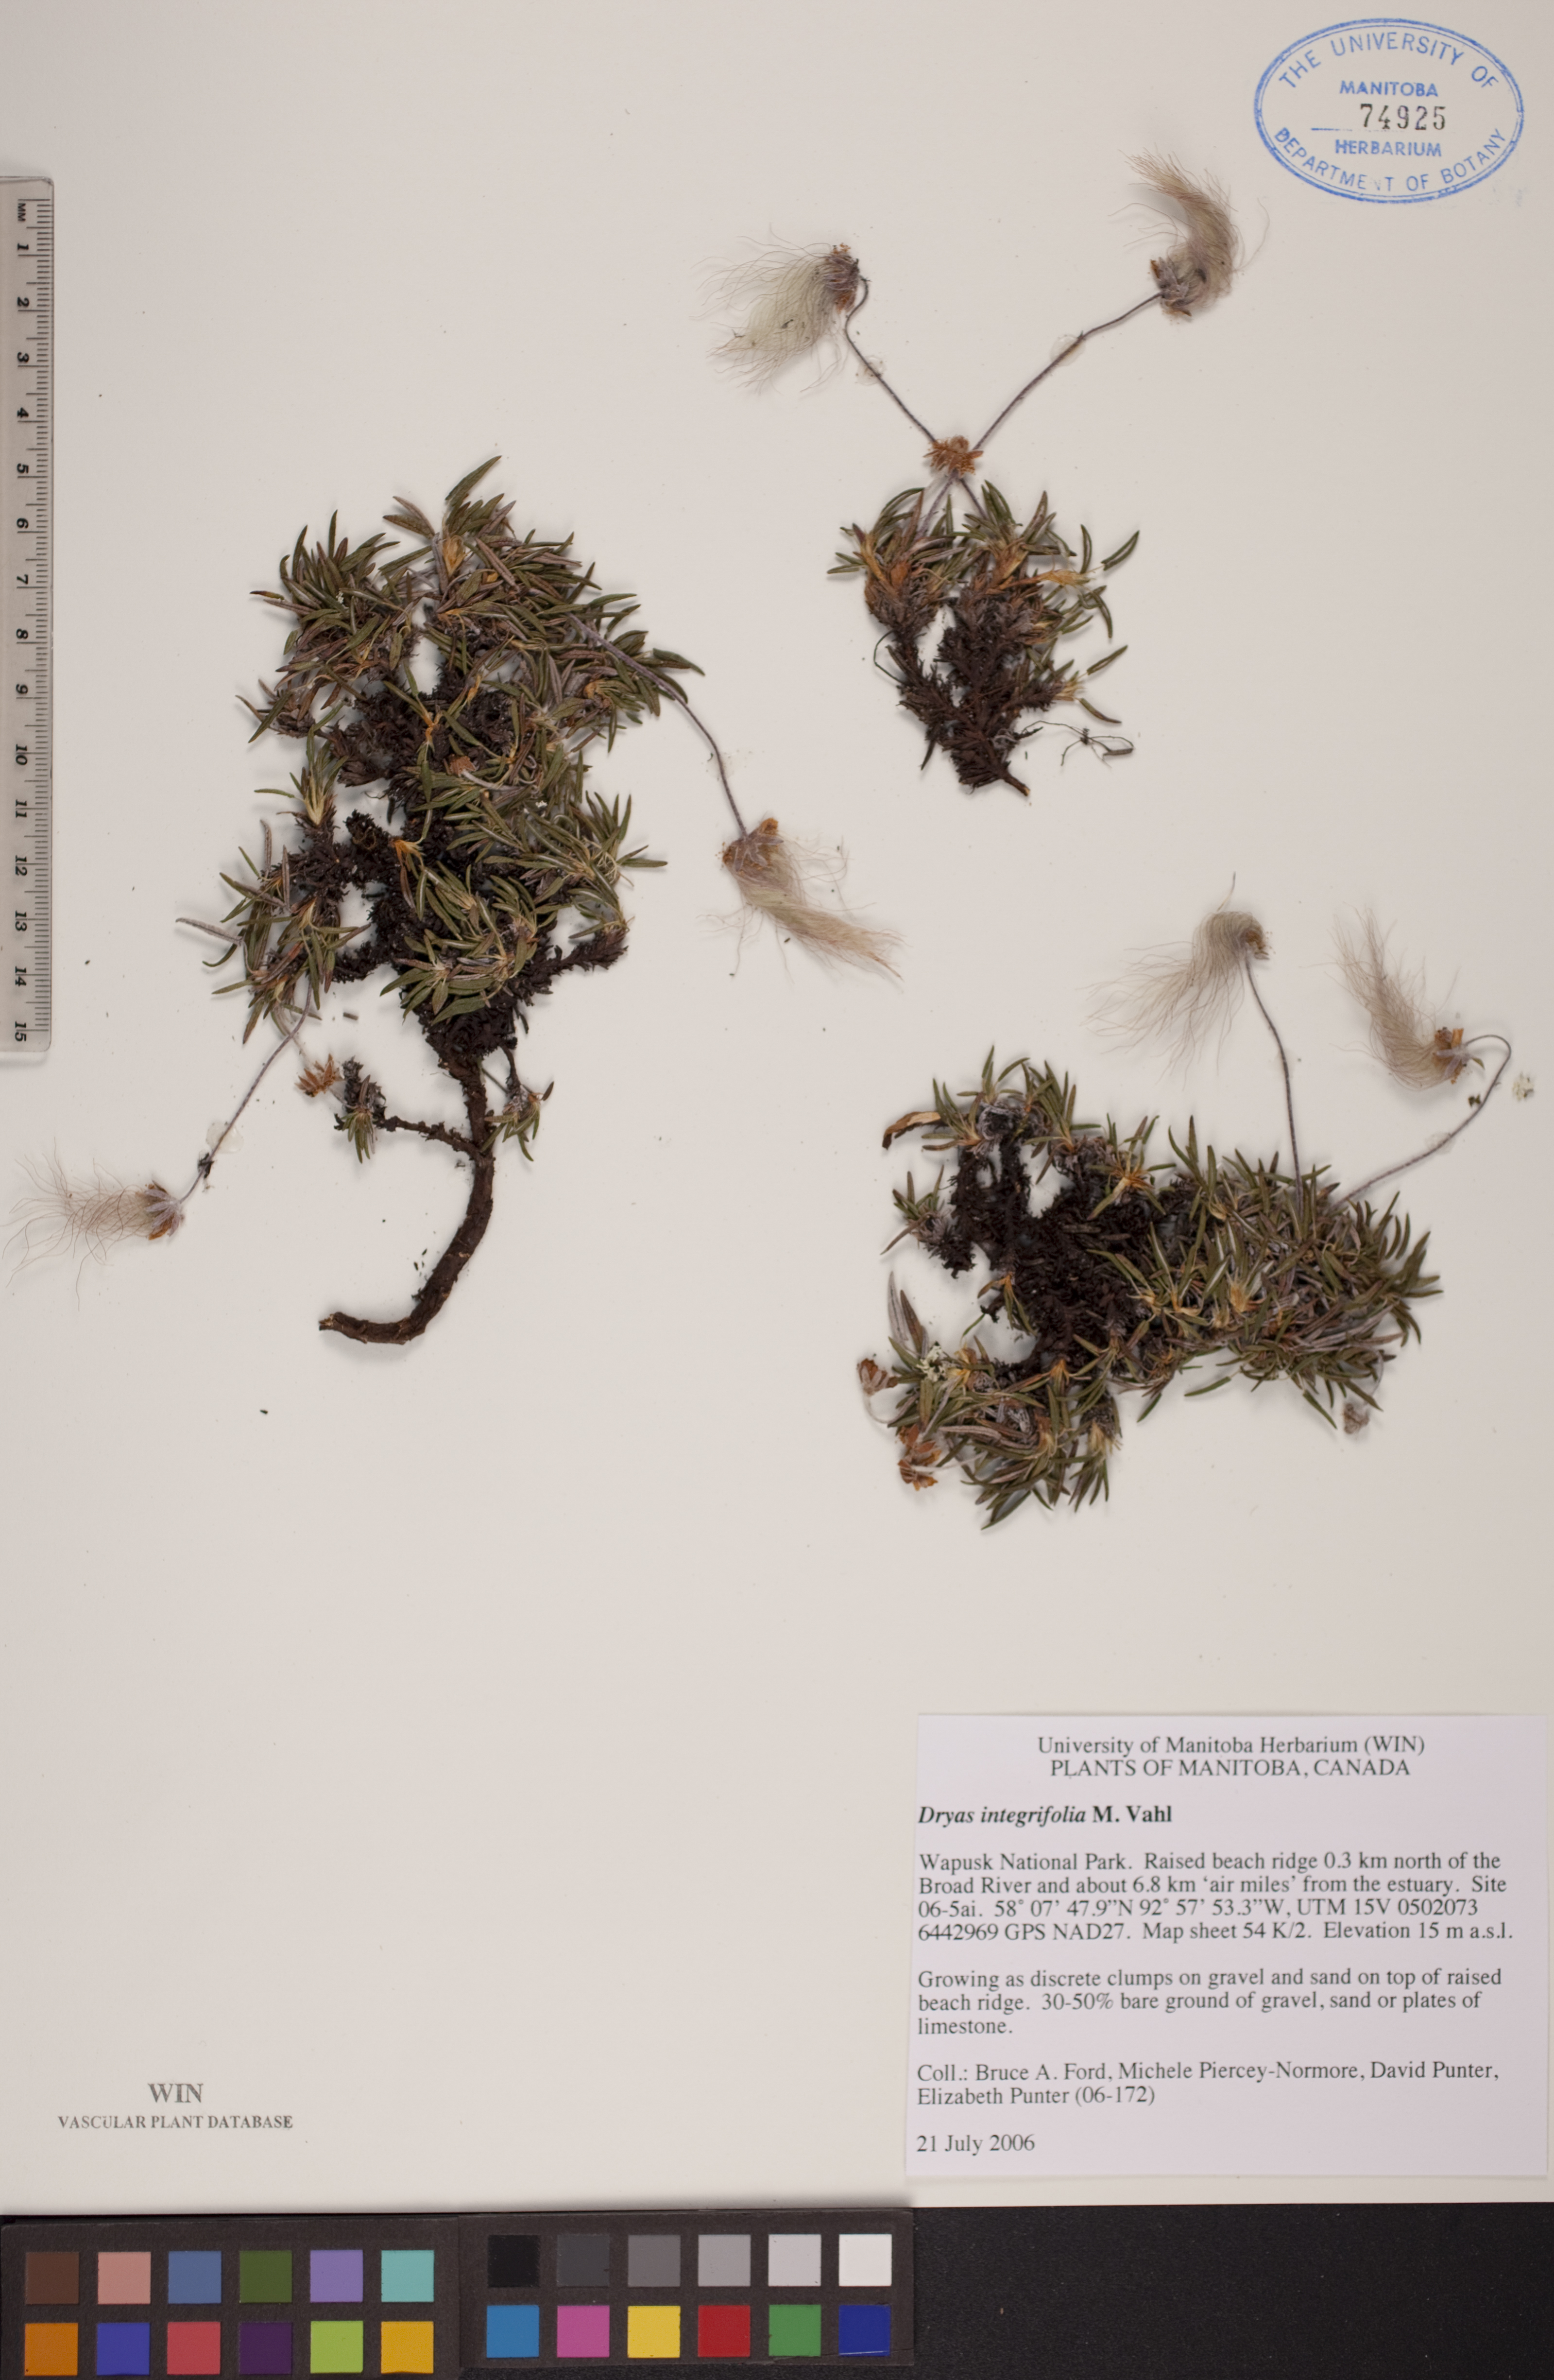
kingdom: Plantae
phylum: Tracheophyta
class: Magnoliopsida
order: Rosales
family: Rosaceae
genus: Dryas
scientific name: Dryas integrifolia
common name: Entire-leaved mountain avens
